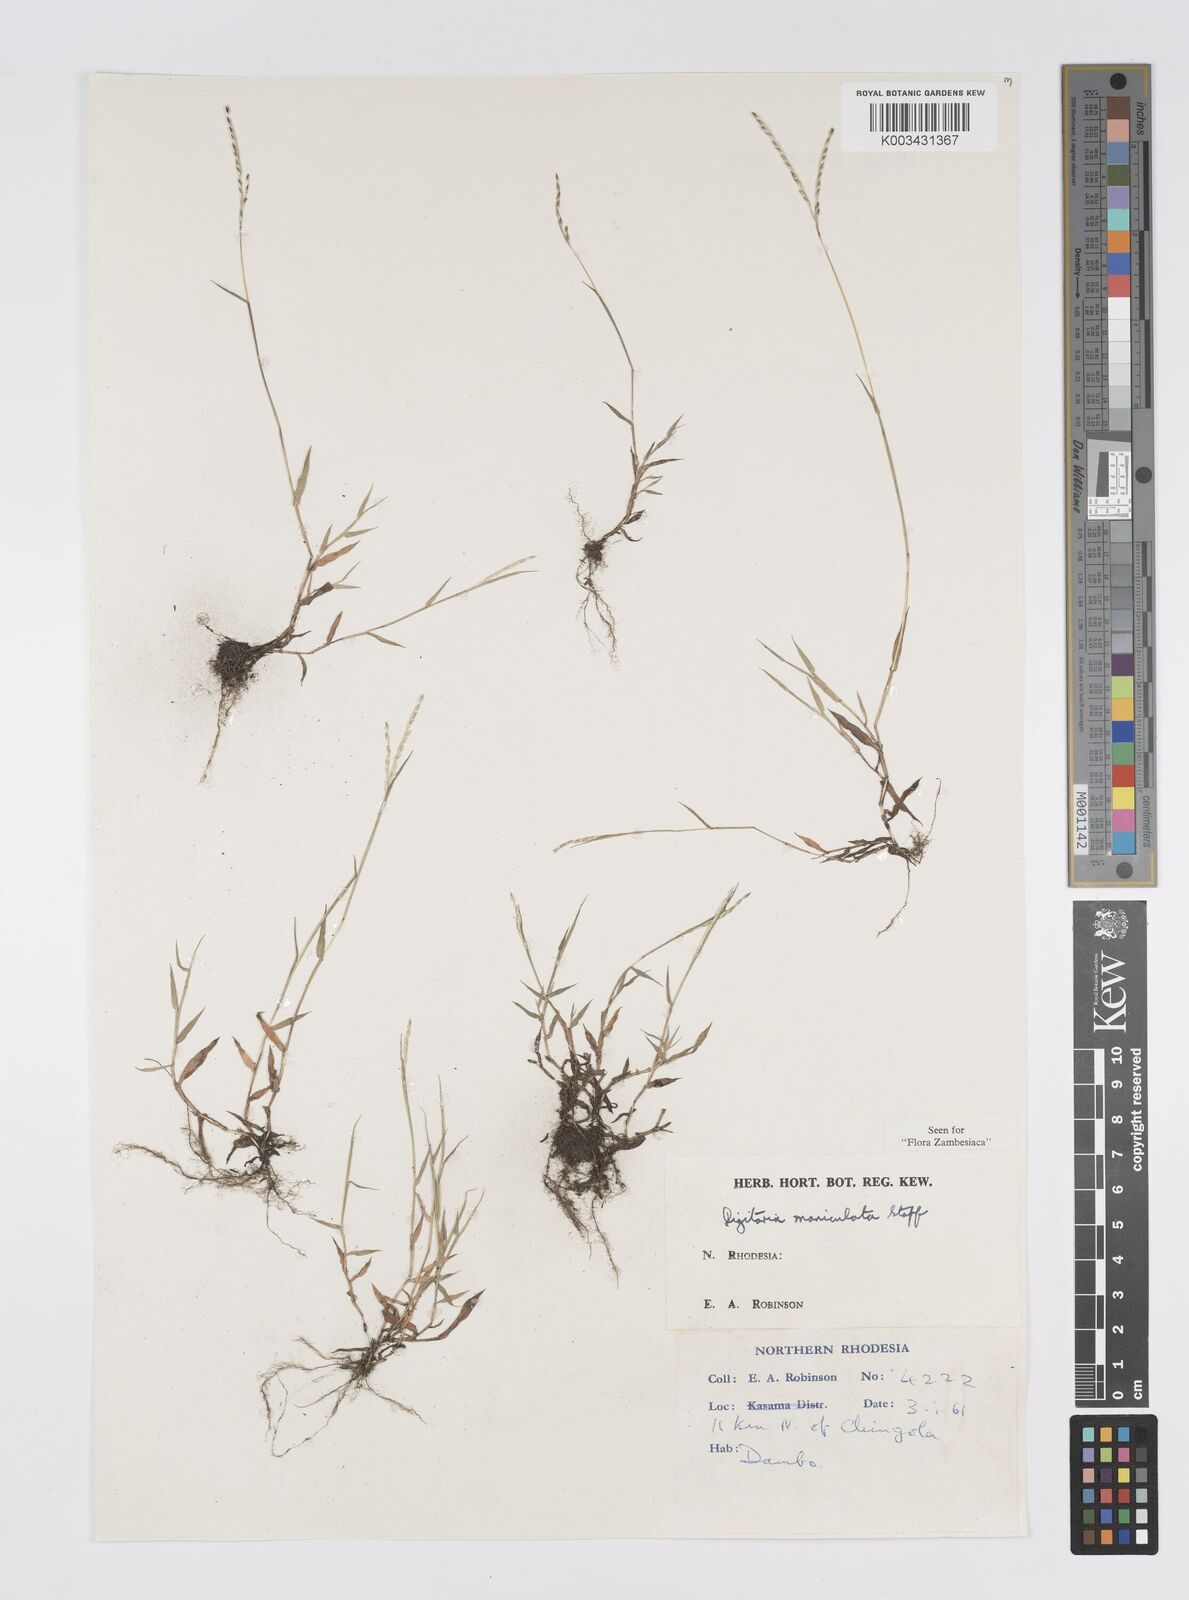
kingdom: Plantae
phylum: Tracheophyta
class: Liliopsida
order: Poales
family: Poaceae
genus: Digitaria
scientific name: Digitaria maniculata
